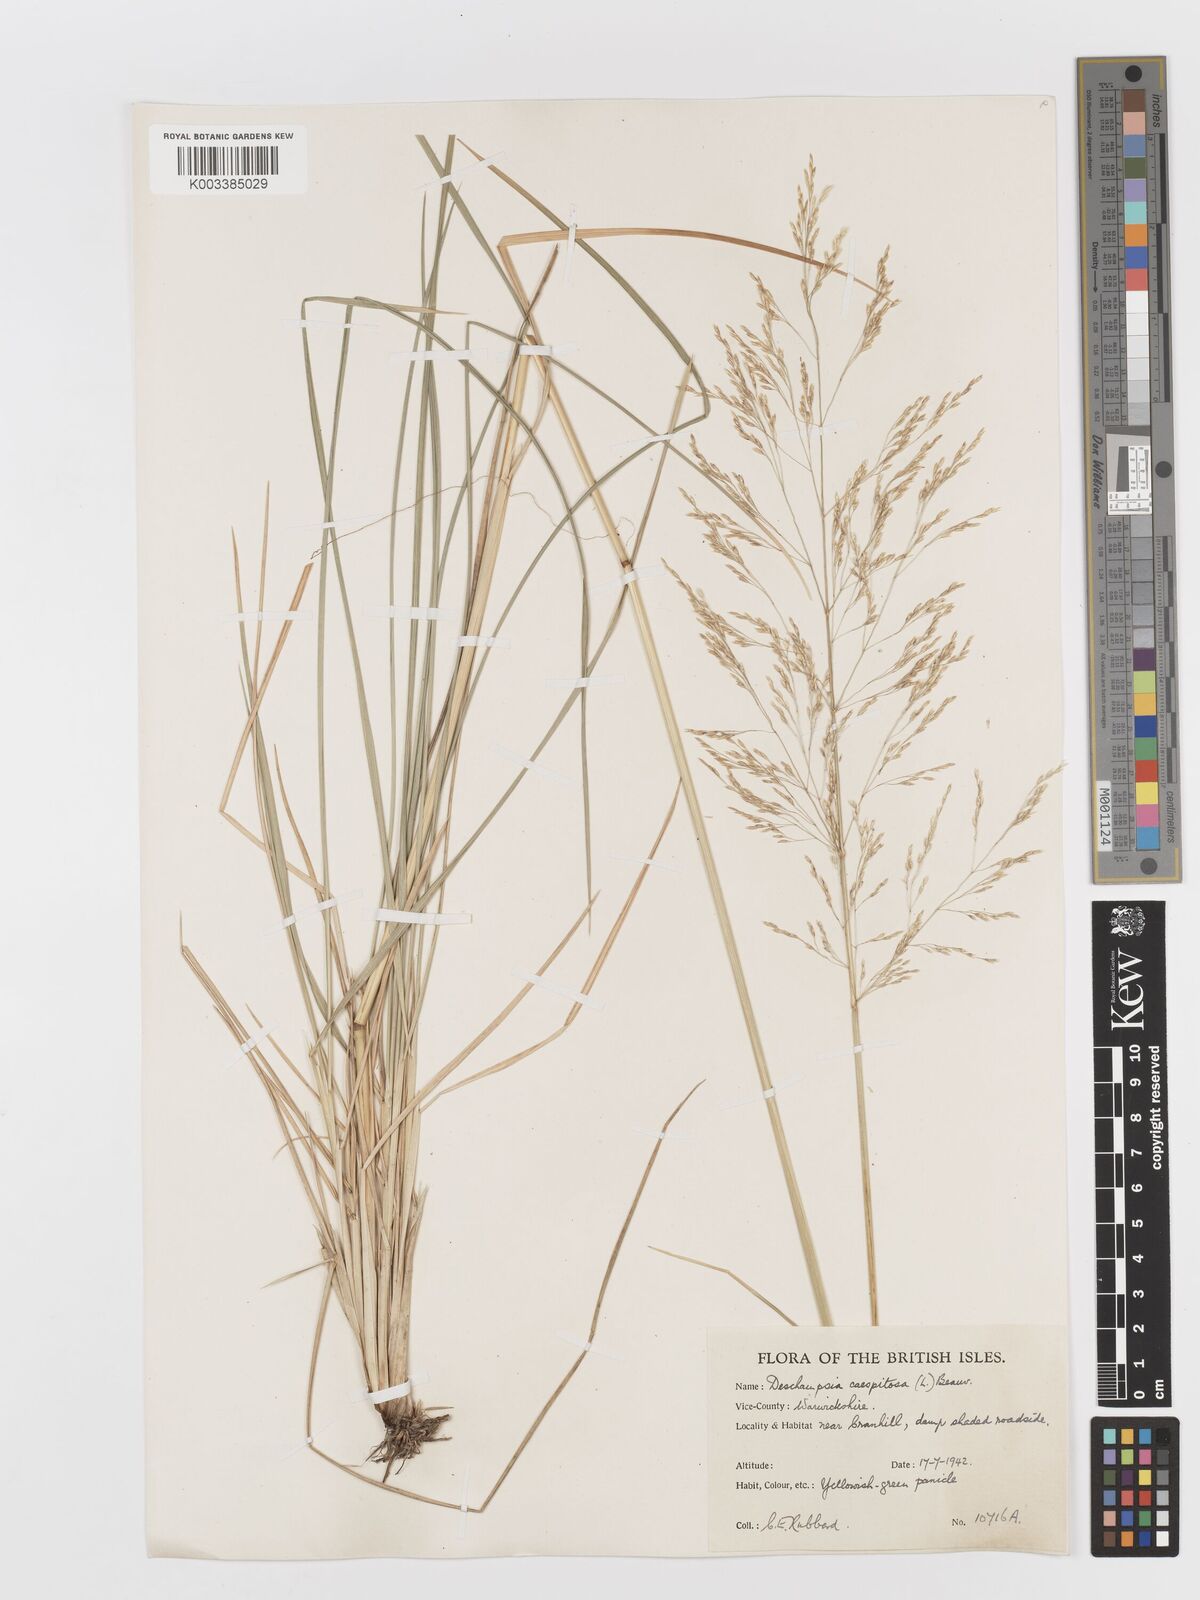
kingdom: Plantae
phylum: Tracheophyta
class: Liliopsida
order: Poales
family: Poaceae
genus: Deschampsia
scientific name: Deschampsia cespitosa
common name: Tufted hair-grass
